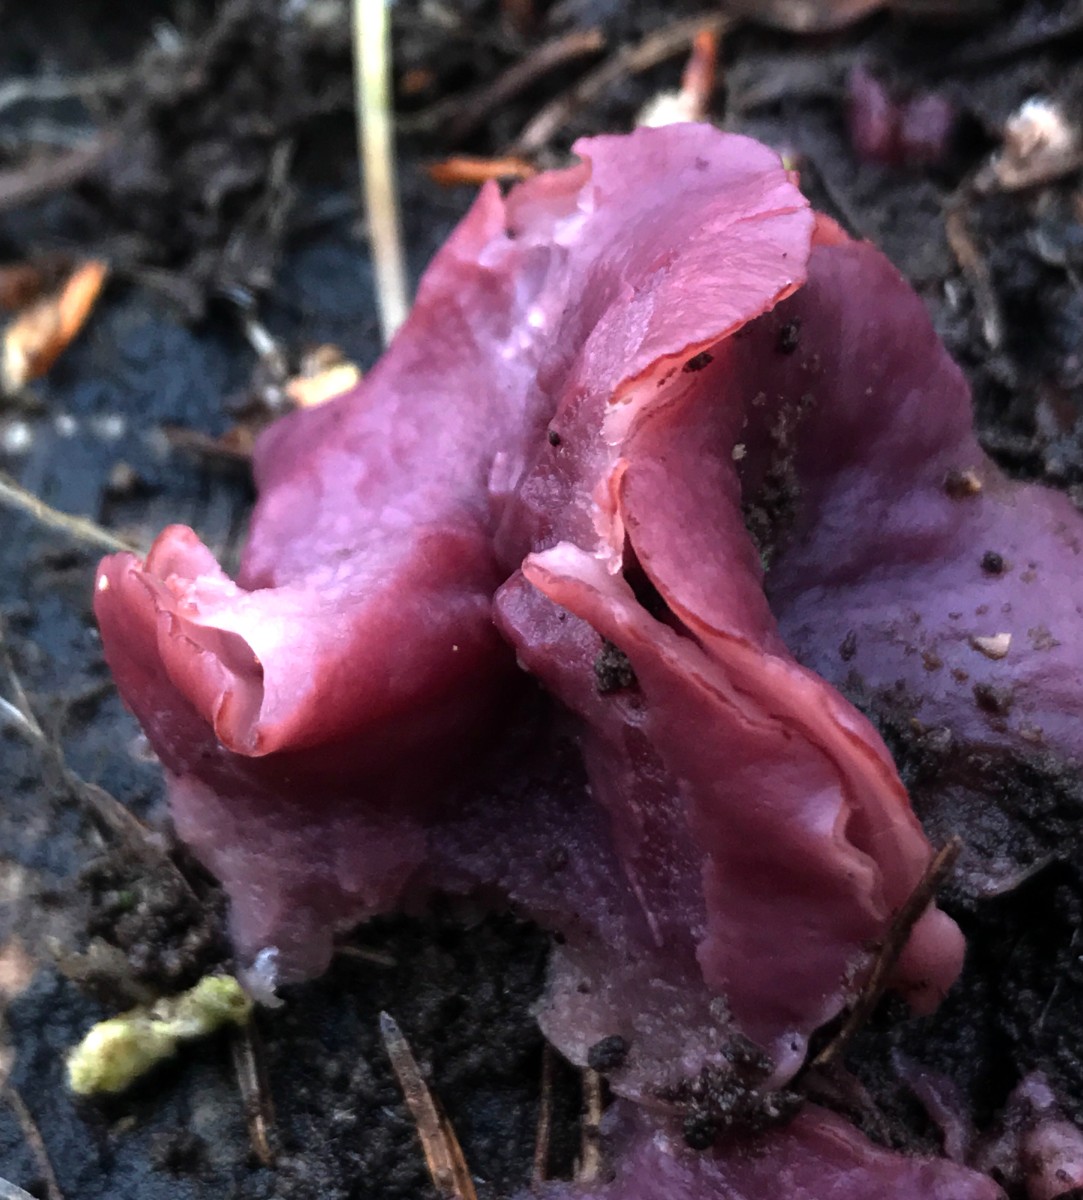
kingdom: Fungi
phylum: Ascomycota
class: Leotiomycetes
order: Helotiales
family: Gelatinodiscaceae
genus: Ascocoryne
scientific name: Ascocoryne cylichnium
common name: stor sejskive
